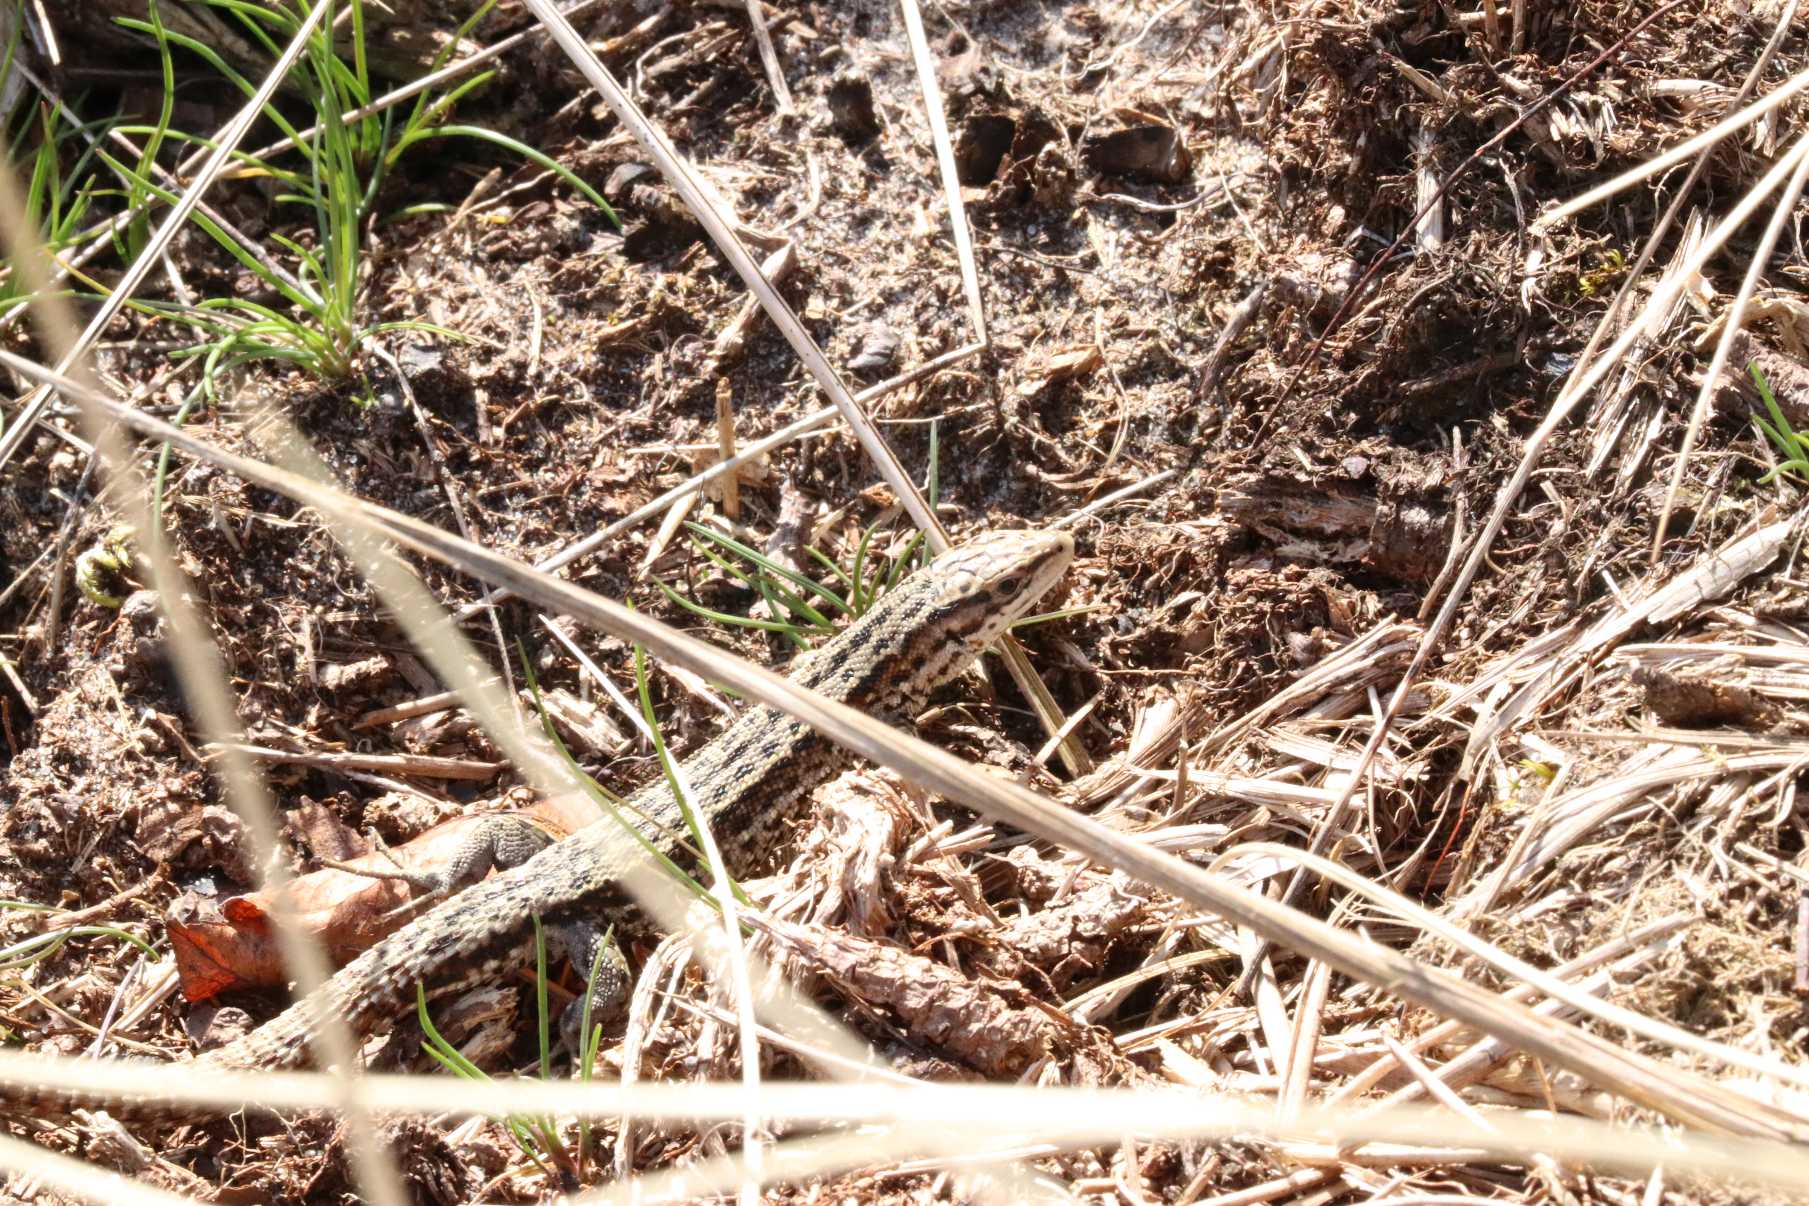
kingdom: Animalia
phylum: Chordata
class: Squamata
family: Lacertidae
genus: Zootoca
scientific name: Zootoca vivipara
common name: Skovfirben
